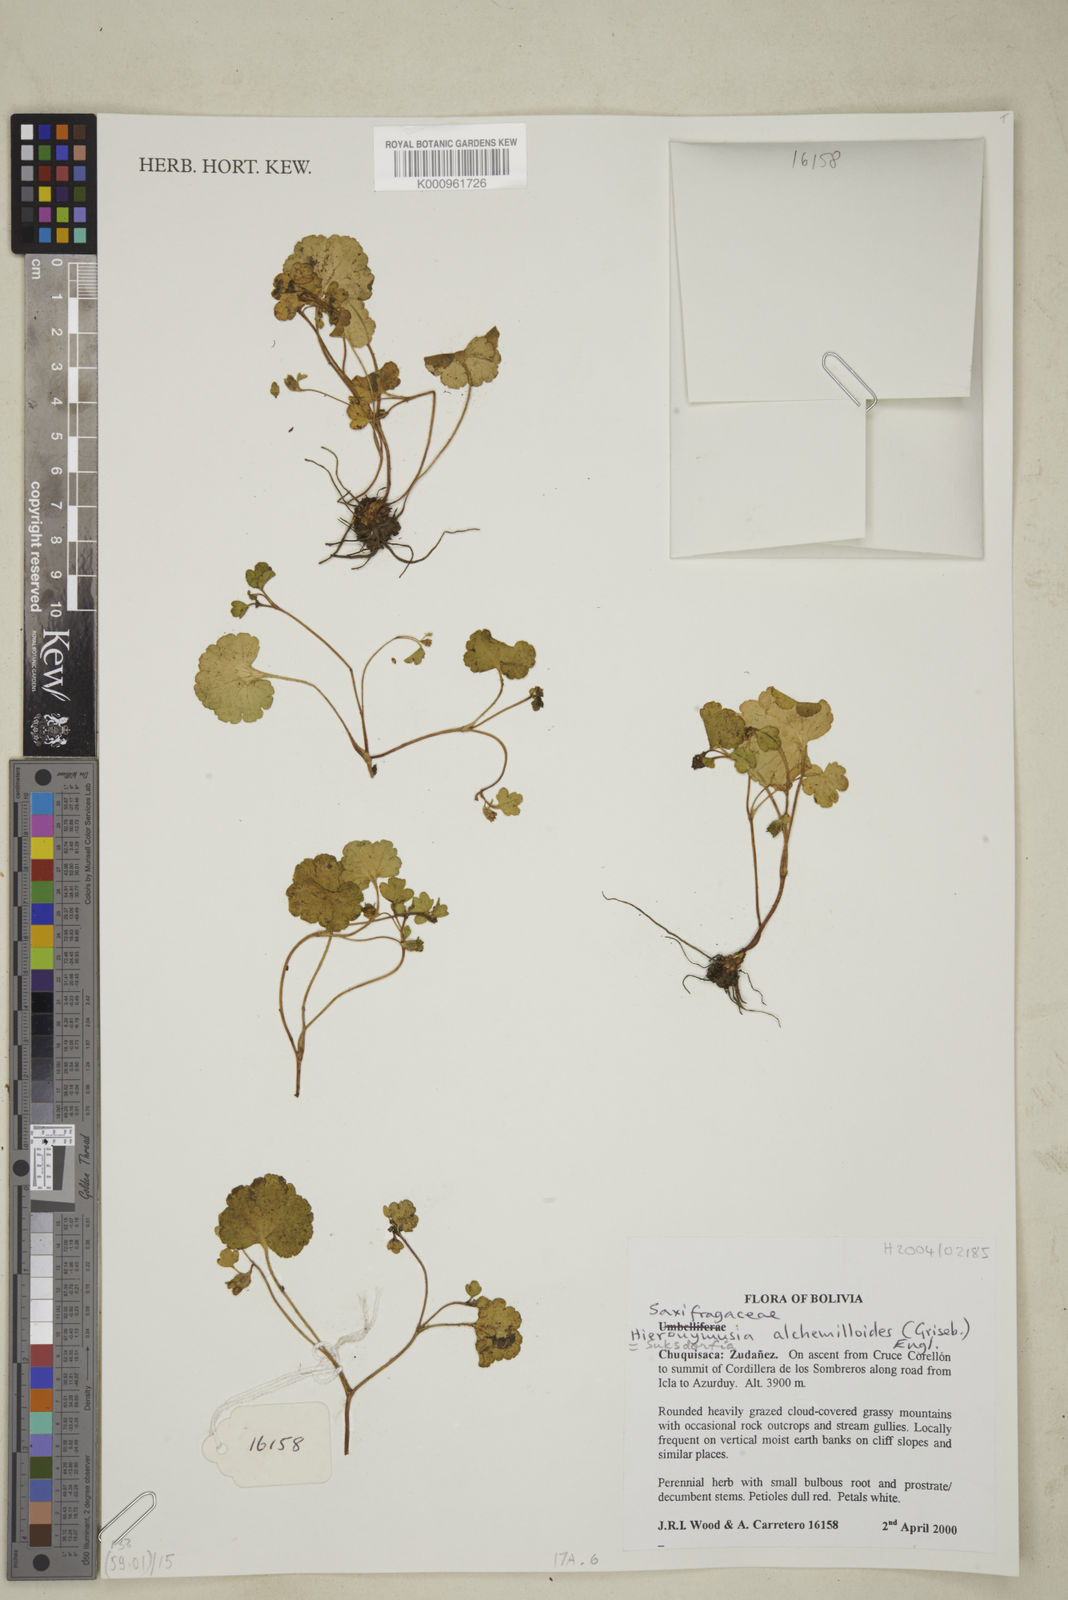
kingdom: Plantae
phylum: Tracheophyta
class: Magnoliopsida
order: Saxifragales
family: Saxifragaceae
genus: Hieronymusia
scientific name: Hieronymusia alchemilloides
